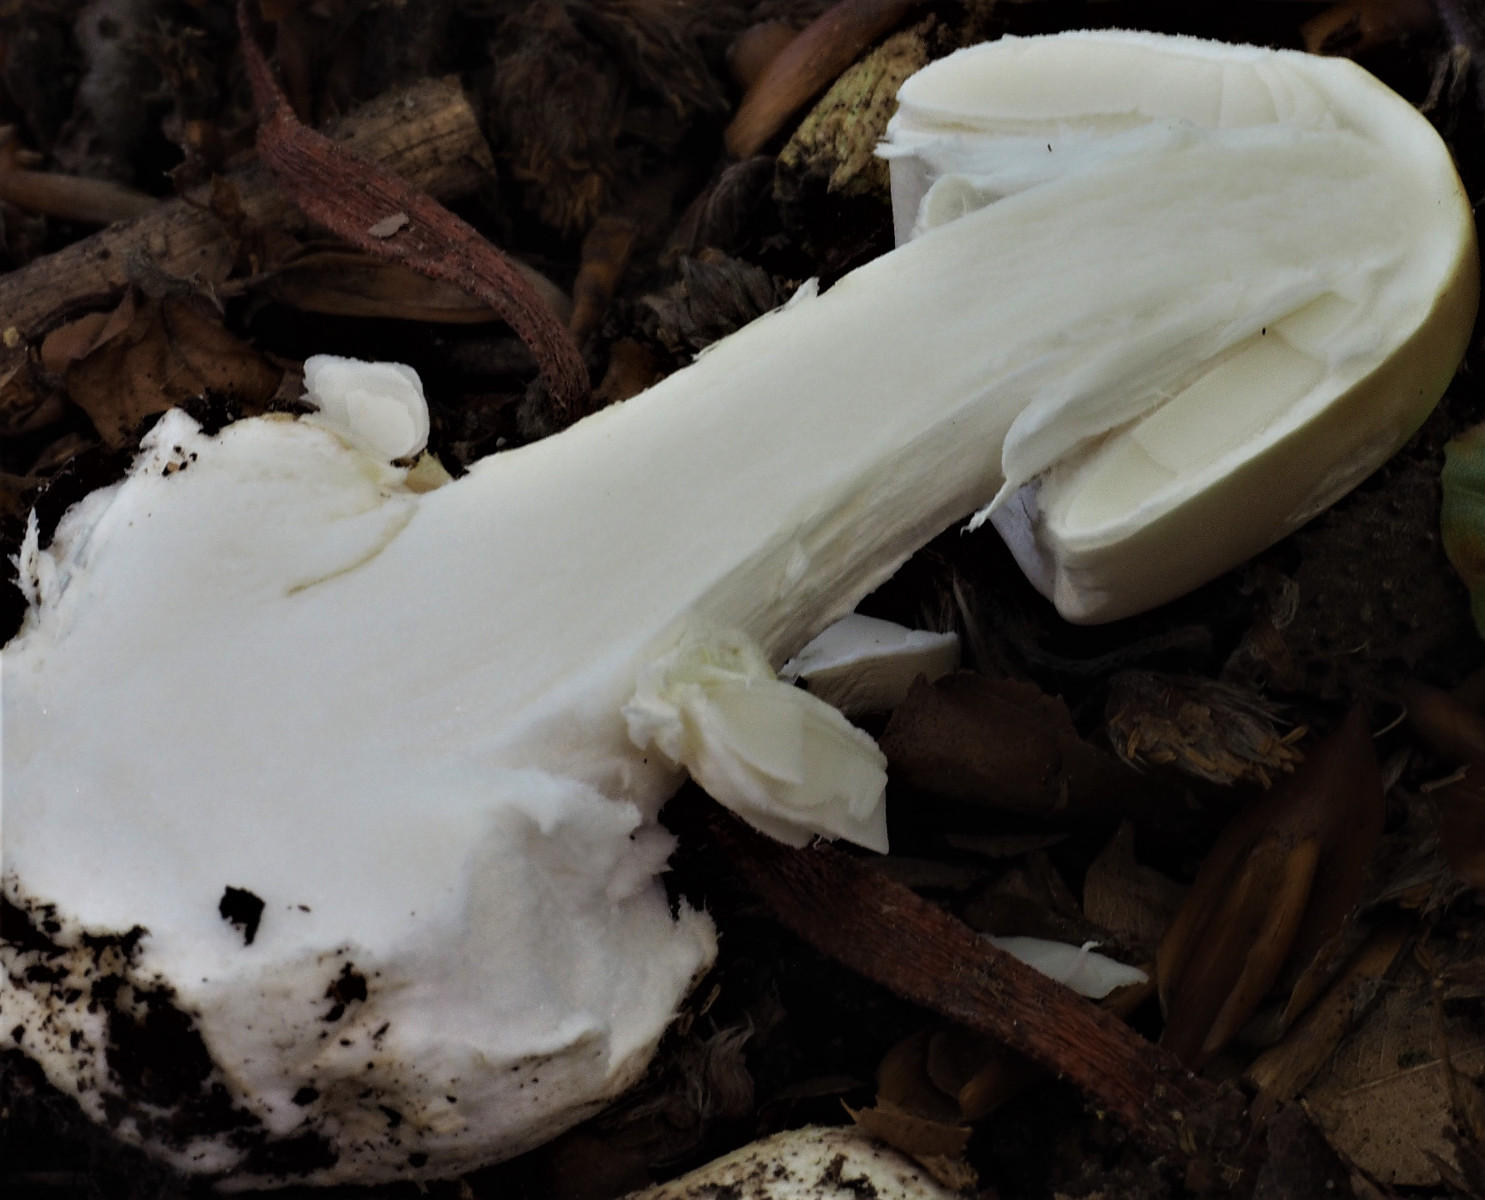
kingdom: Fungi
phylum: Basidiomycota
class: Agaricomycetes
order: Agaricales
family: Amanitaceae
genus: Amanita
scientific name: Amanita phalloides
